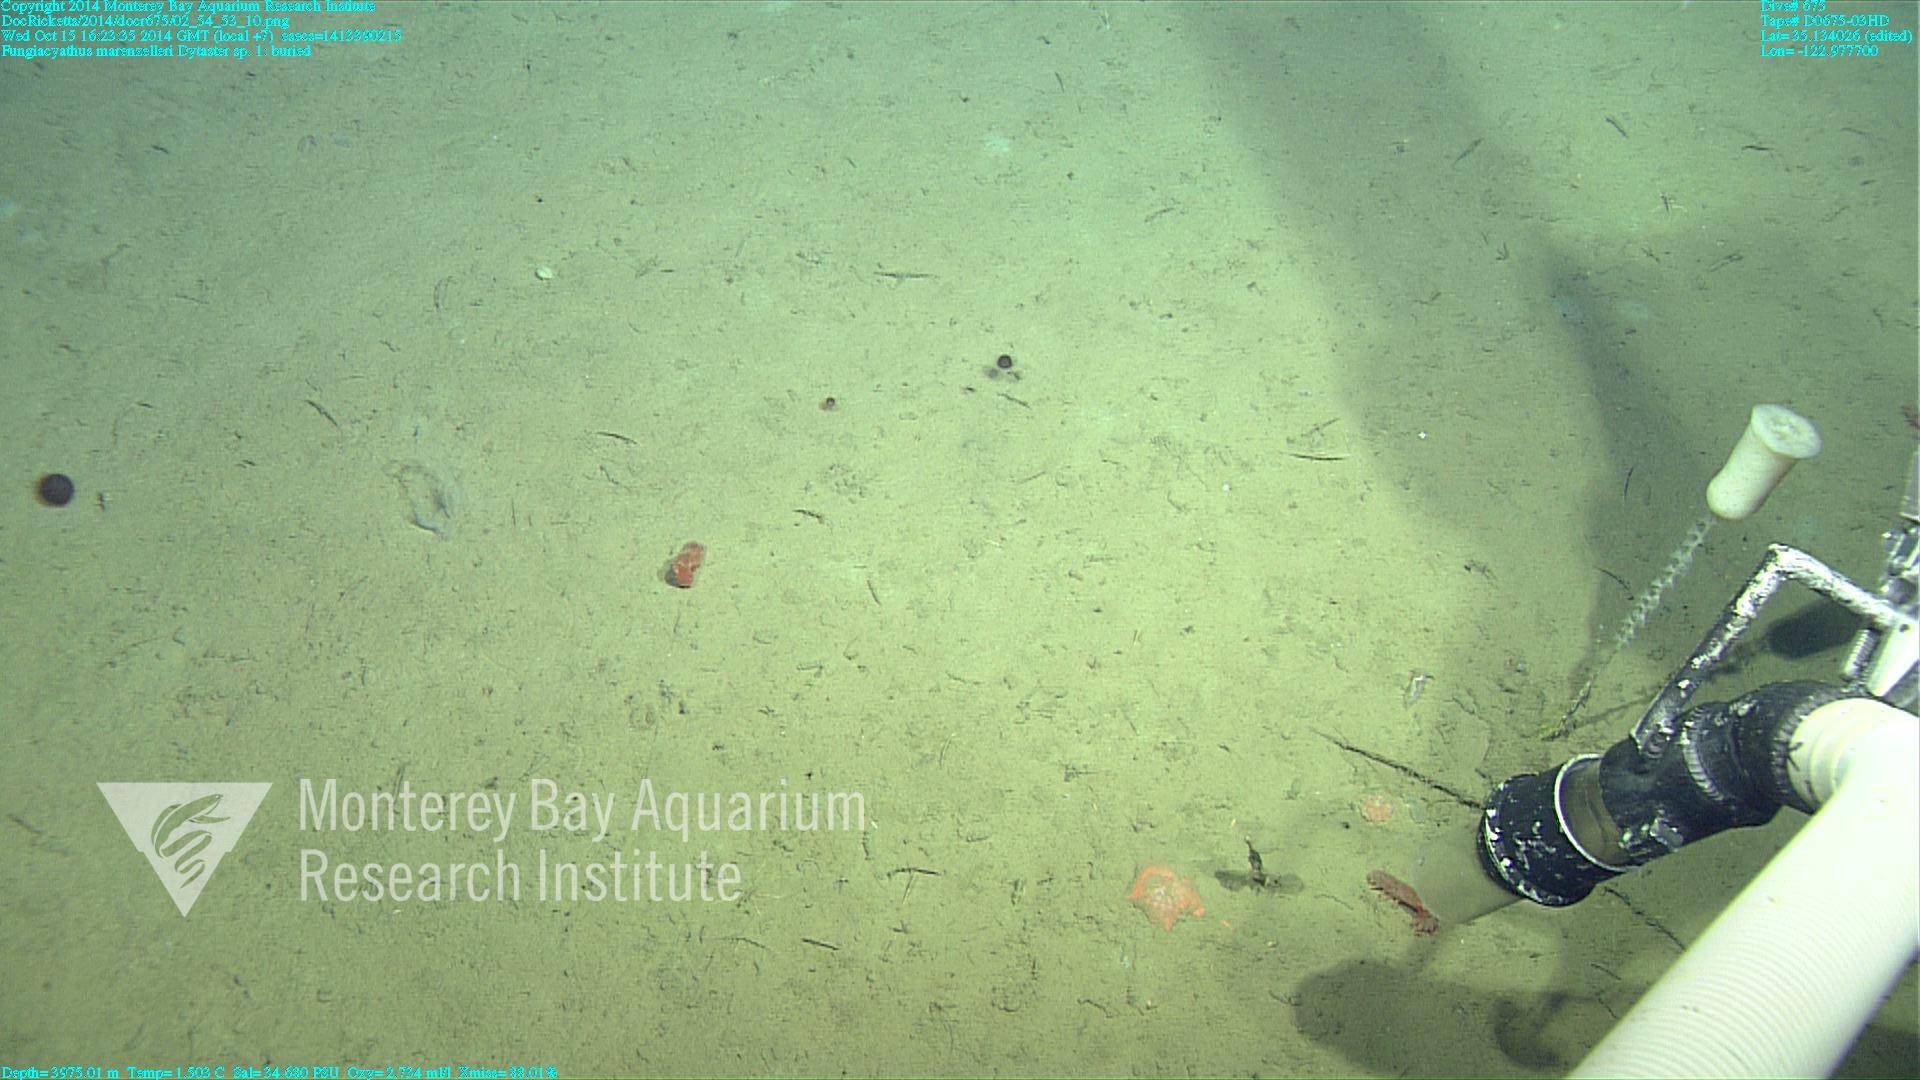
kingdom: Animalia
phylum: Cnidaria
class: Anthozoa
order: Scleractinia
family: Fungiacyathidae
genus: Fungiacyathus
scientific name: Fungiacyathus marenzelleri
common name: Marenzeller's stony coral
